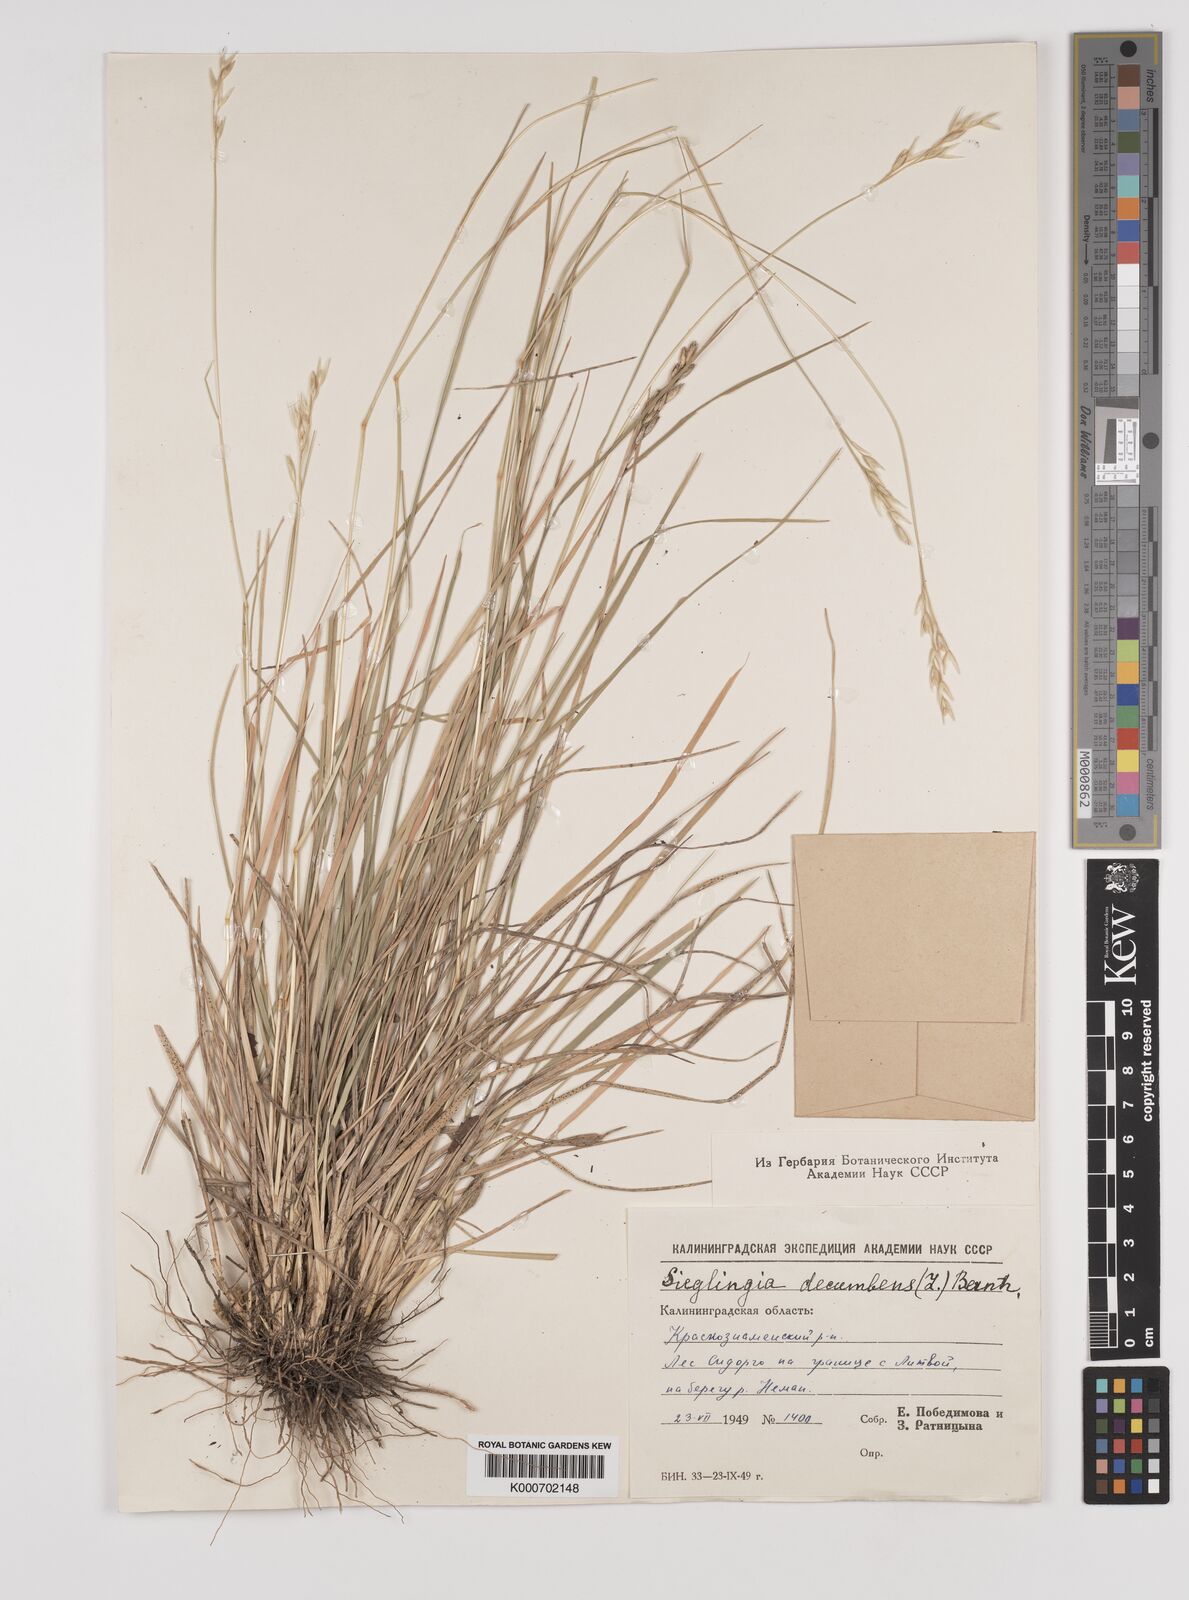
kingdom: Plantae
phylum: Tracheophyta
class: Liliopsida
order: Poales
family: Poaceae
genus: Danthonia
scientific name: Danthonia decumbens
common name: Common heathgrass
